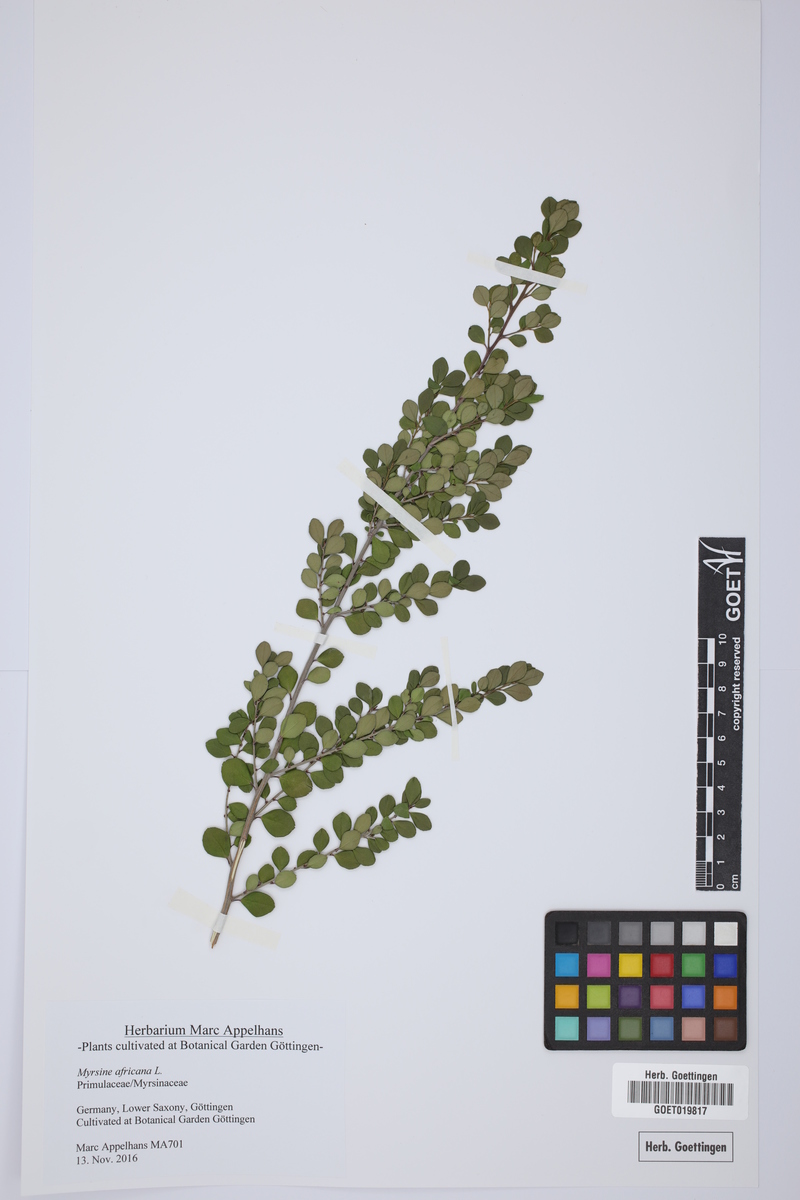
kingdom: Plantae
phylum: Tracheophyta
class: Magnoliopsida
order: Ericales
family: Primulaceae
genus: Myrsine
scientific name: Myrsine africana
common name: African-boxwood
